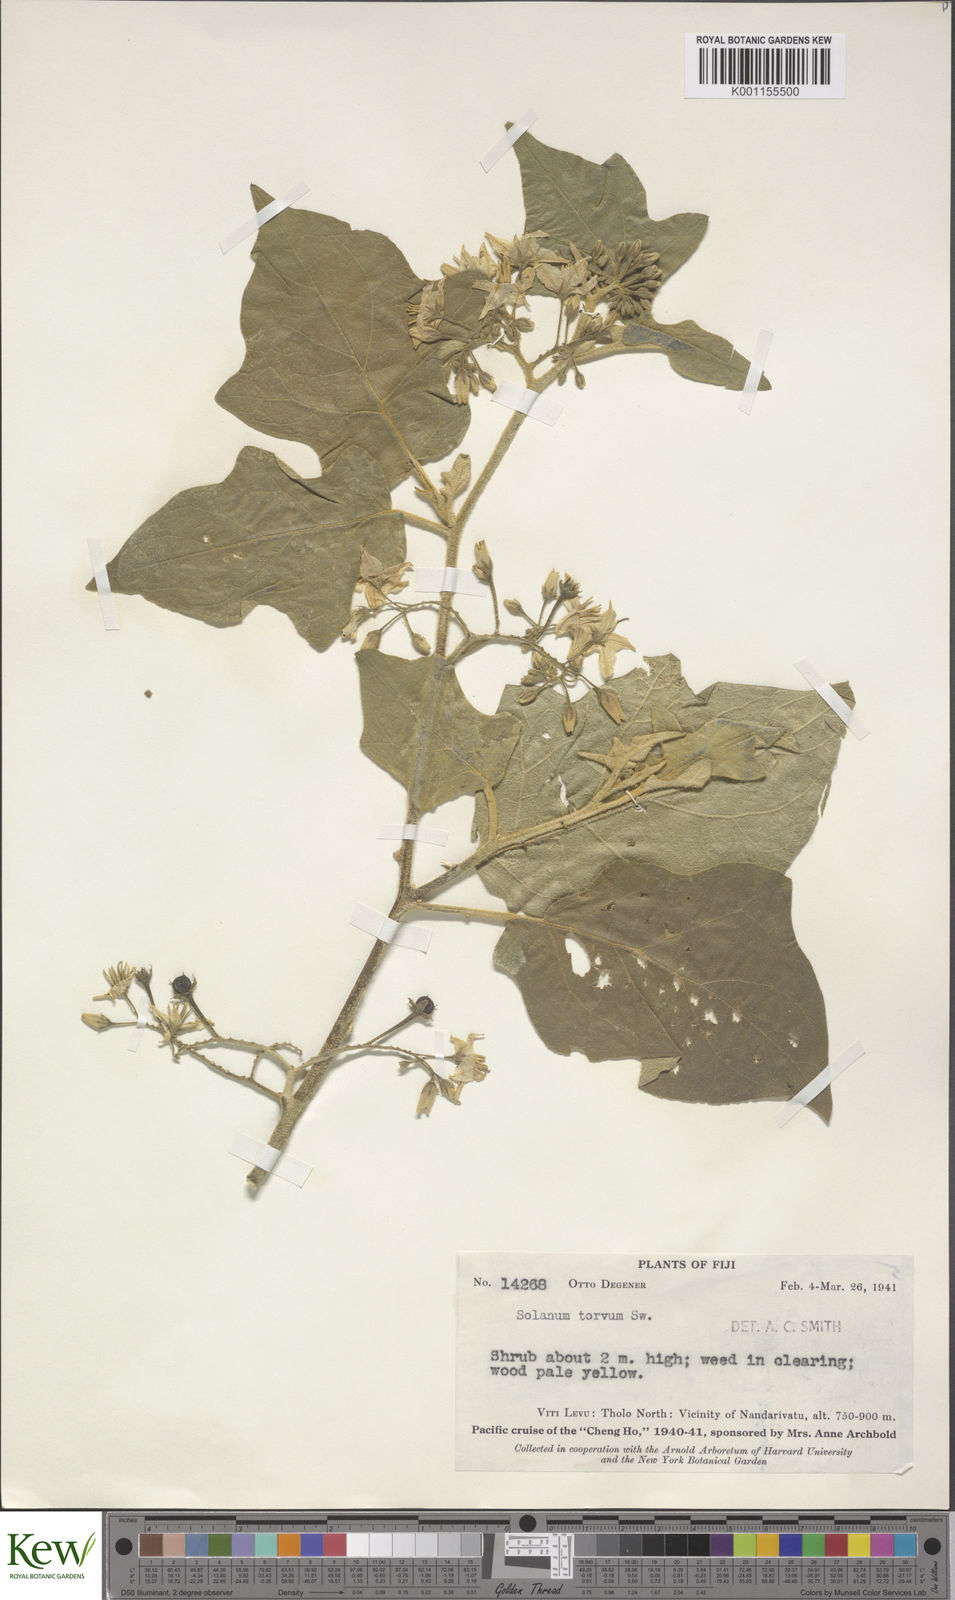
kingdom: Plantae
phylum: Tracheophyta
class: Magnoliopsida
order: Solanales
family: Solanaceae
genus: Solanum
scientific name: Solanum torvum
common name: Turkey berry
